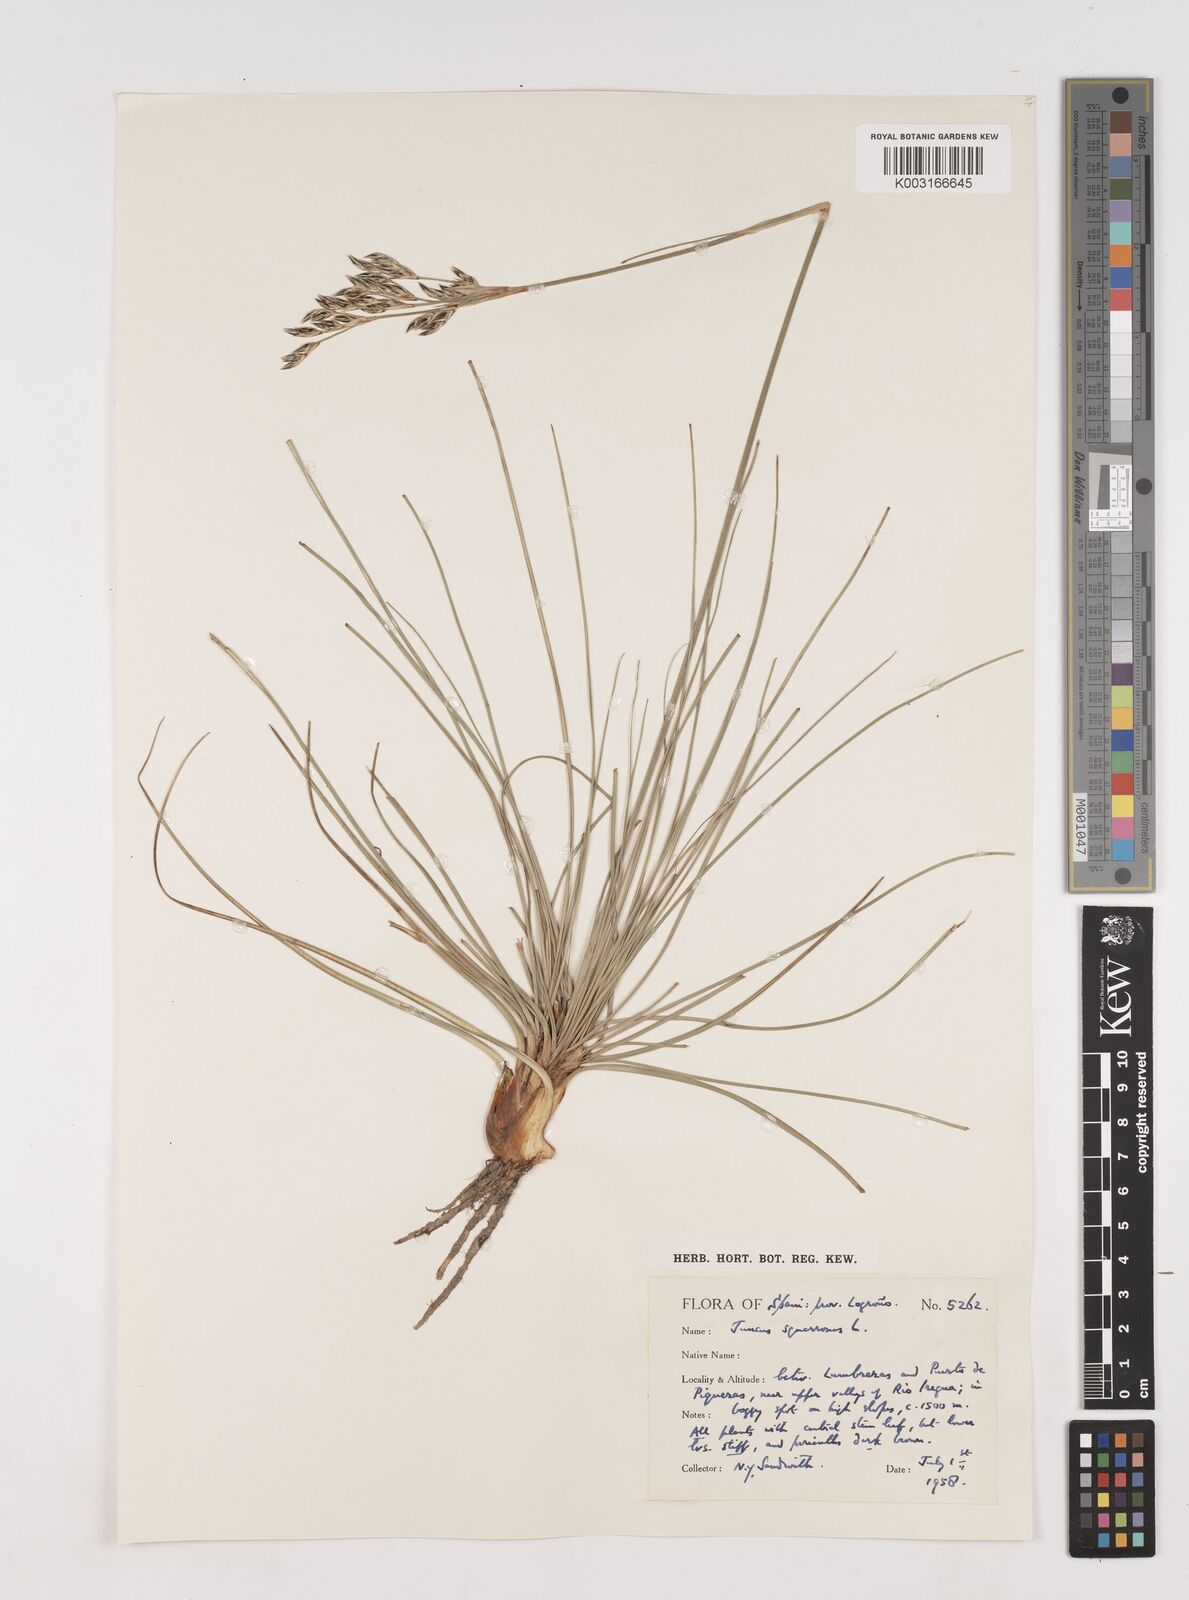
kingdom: Plantae
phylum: Tracheophyta
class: Liliopsida
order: Poales
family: Juncaceae
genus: Juncus
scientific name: Juncus squarrosus
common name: Heath rush
